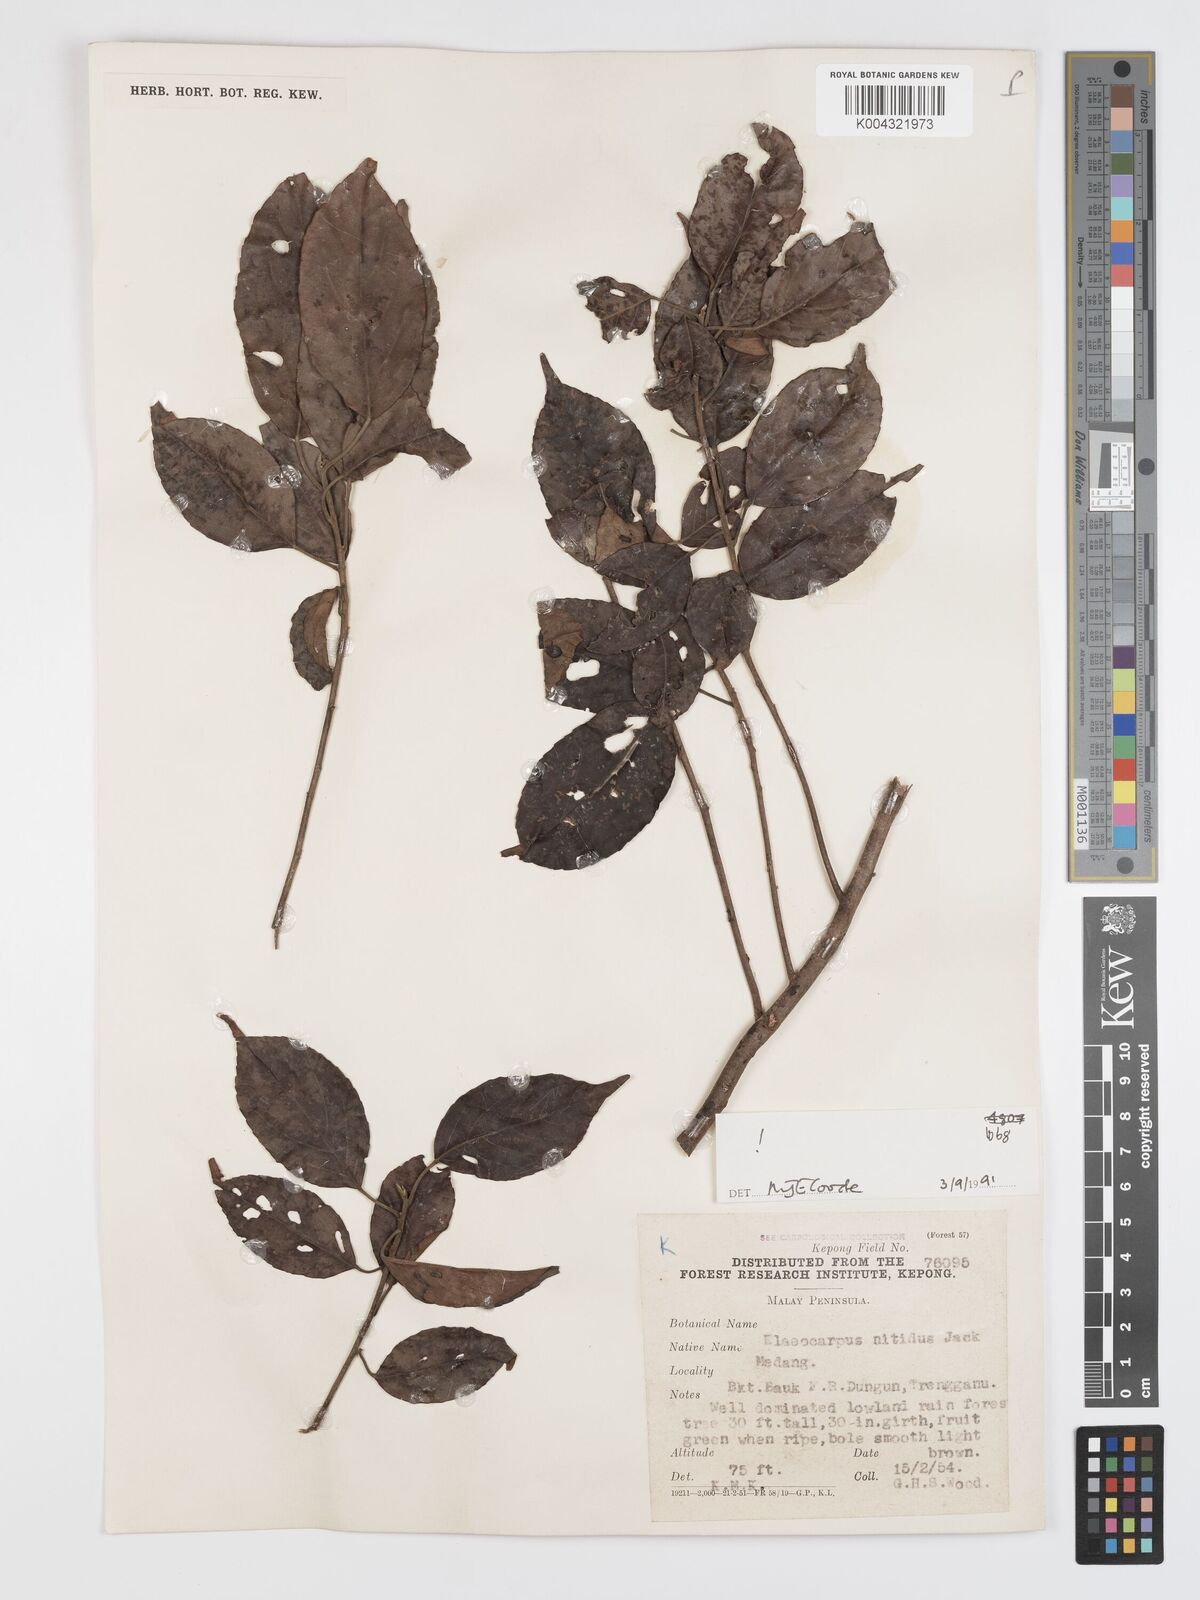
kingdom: Plantae
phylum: Tracheophyta
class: Magnoliopsida
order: Oxalidales
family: Elaeocarpaceae
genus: Elaeocarpus
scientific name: Elaeocarpus nitidus
